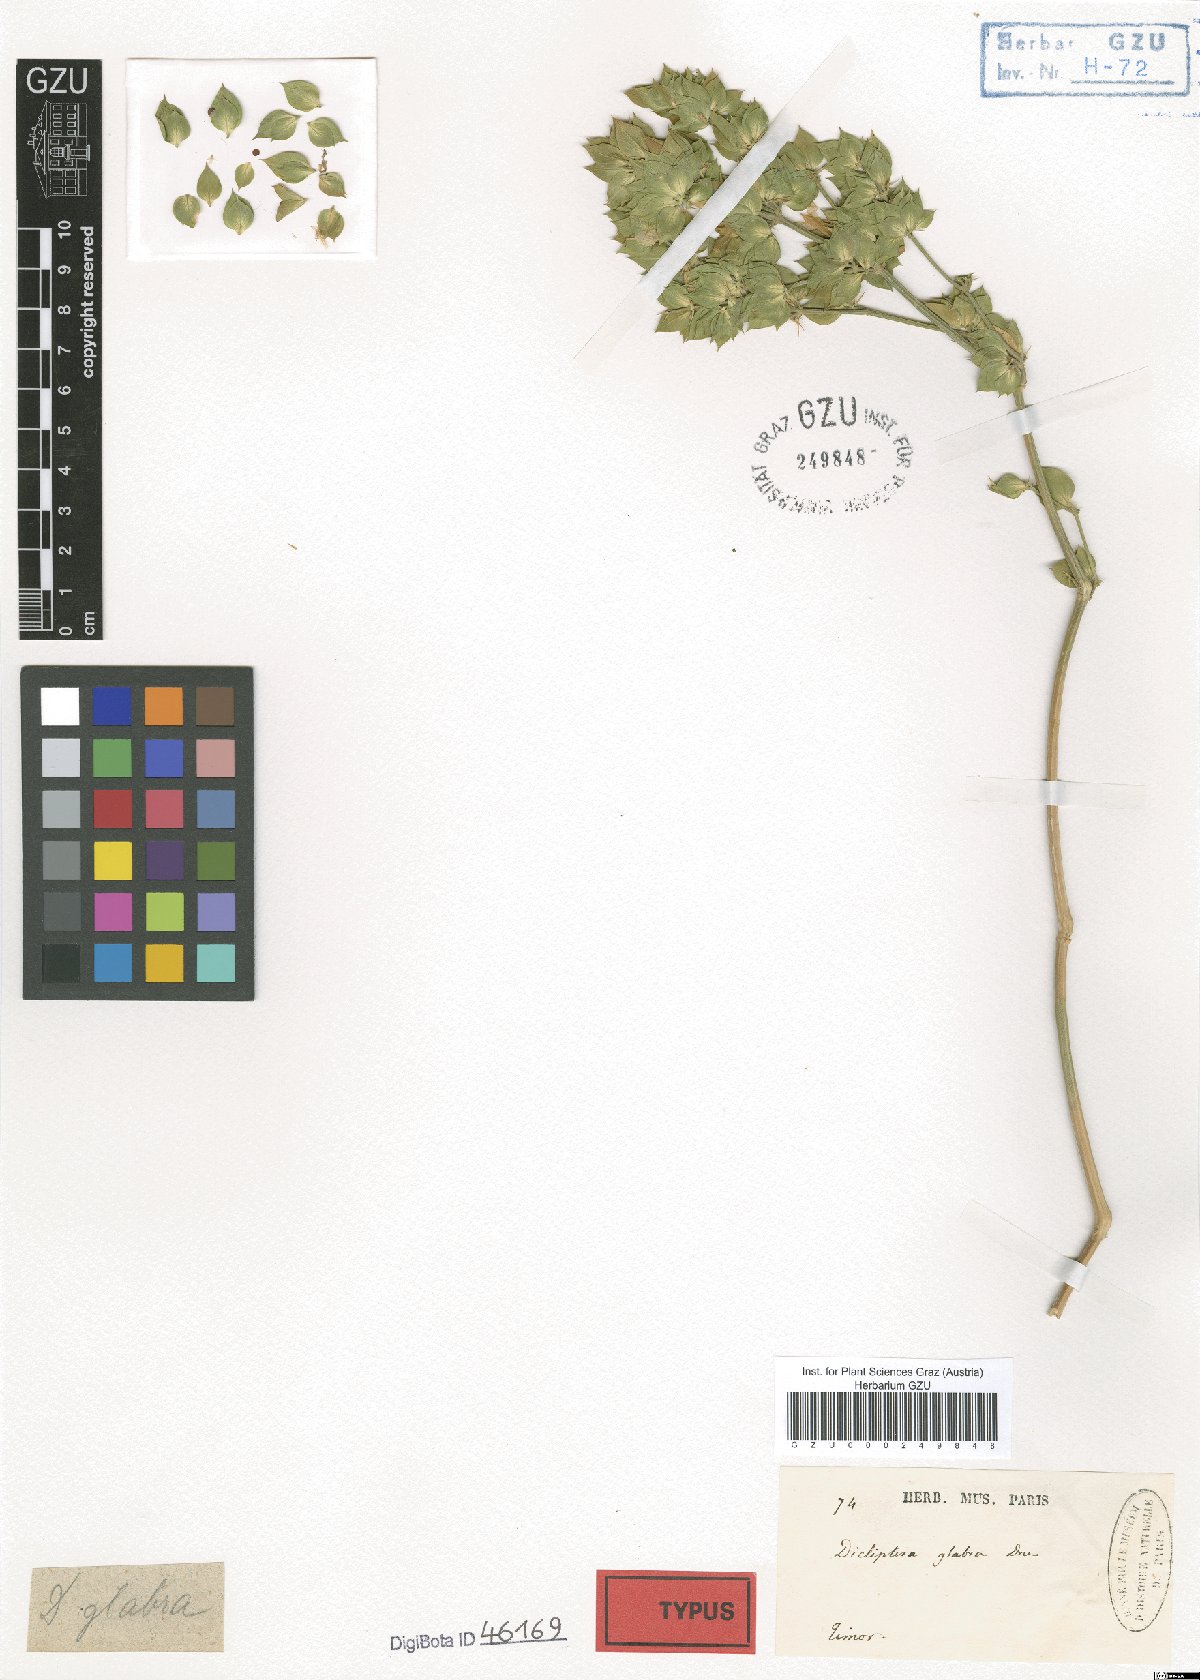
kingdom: Plantae
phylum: Tracheophyta
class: Magnoliopsida
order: Lamiales
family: Acanthaceae
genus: Dicliptera
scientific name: Dicliptera glabra
